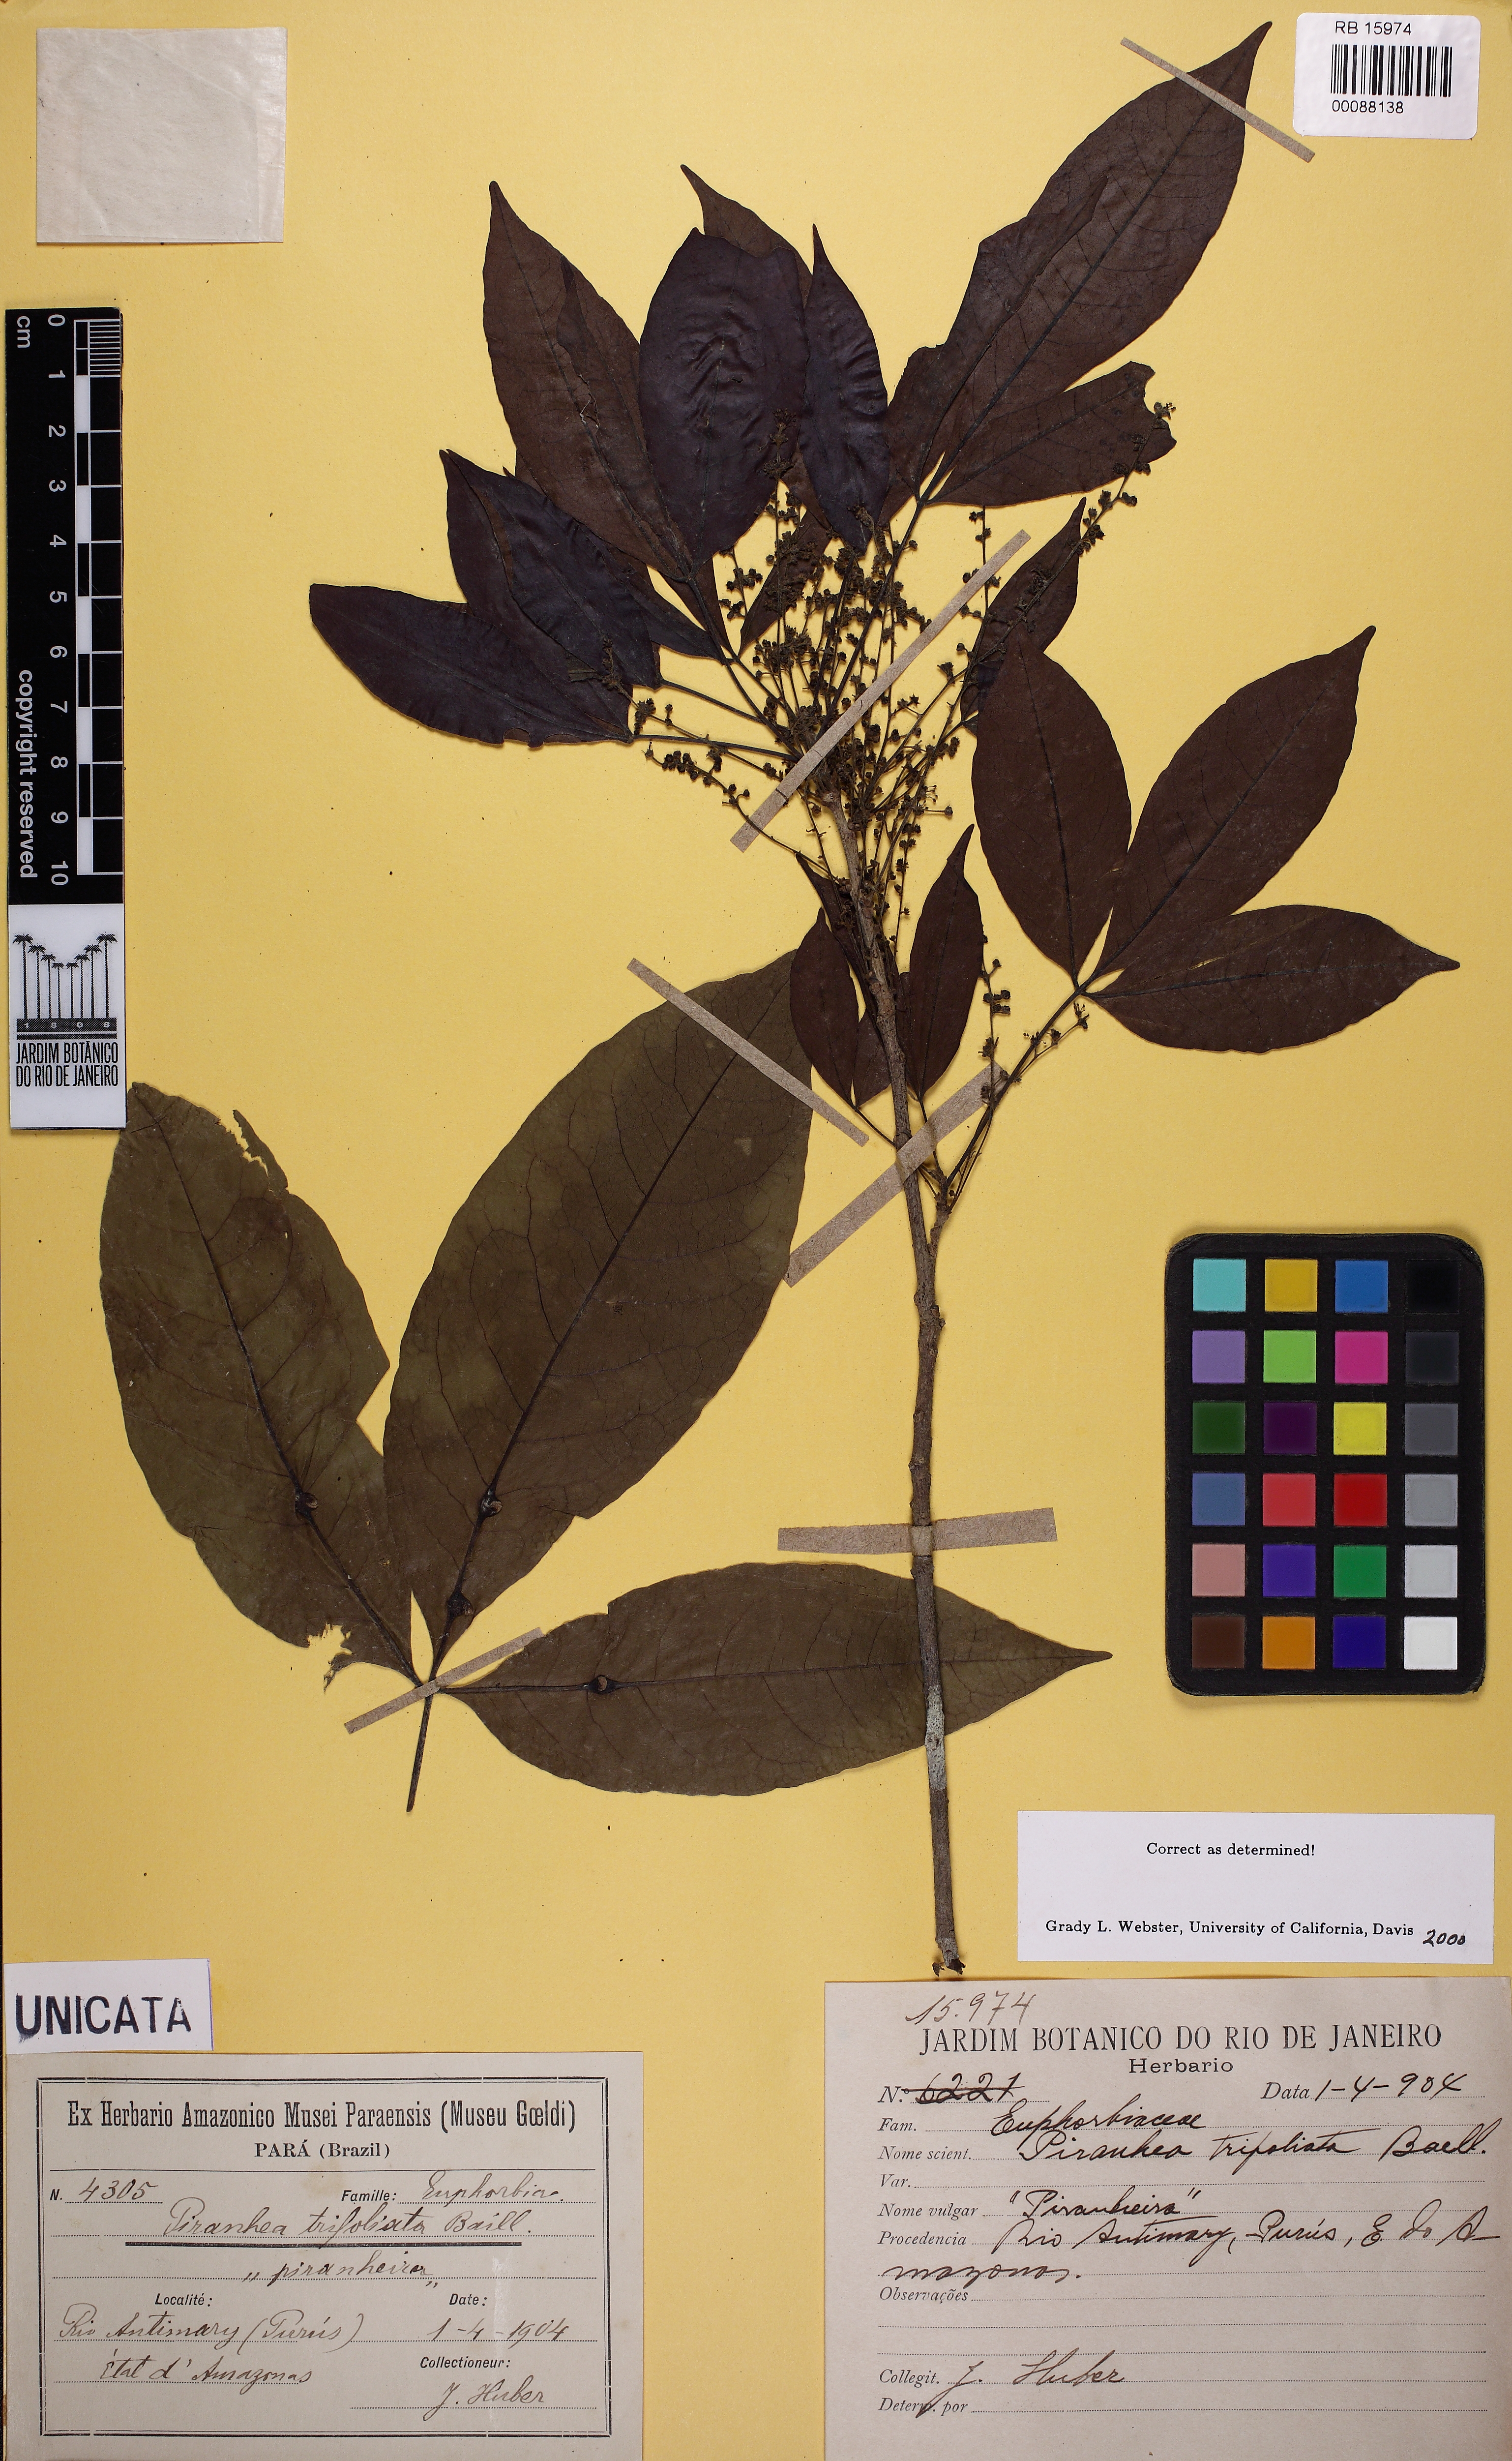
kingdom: Plantae
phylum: Tracheophyta
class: Magnoliopsida
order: Malpighiales
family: Picrodendraceae
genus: Piranhea
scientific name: Piranhea trifoliata
